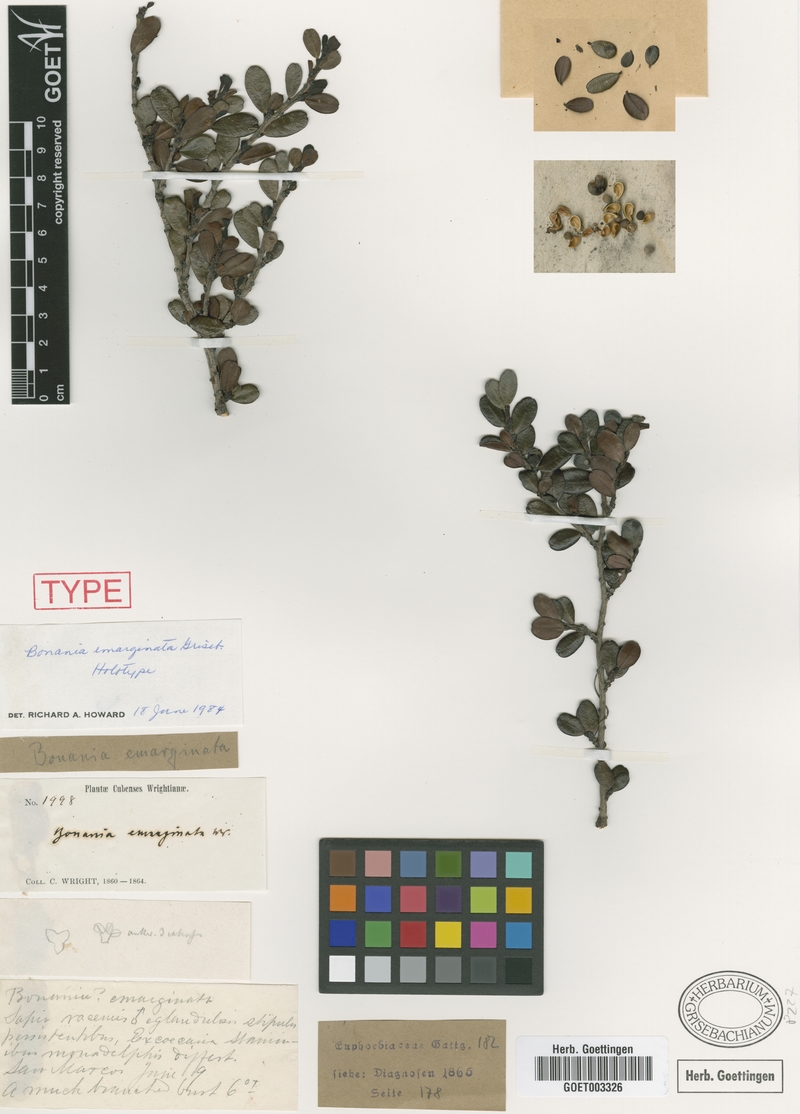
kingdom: Plantae
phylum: Tracheophyta
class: Magnoliopsida
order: Malpighiales
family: Euphorbiaceae
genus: Bonania
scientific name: Bonania emarginata
